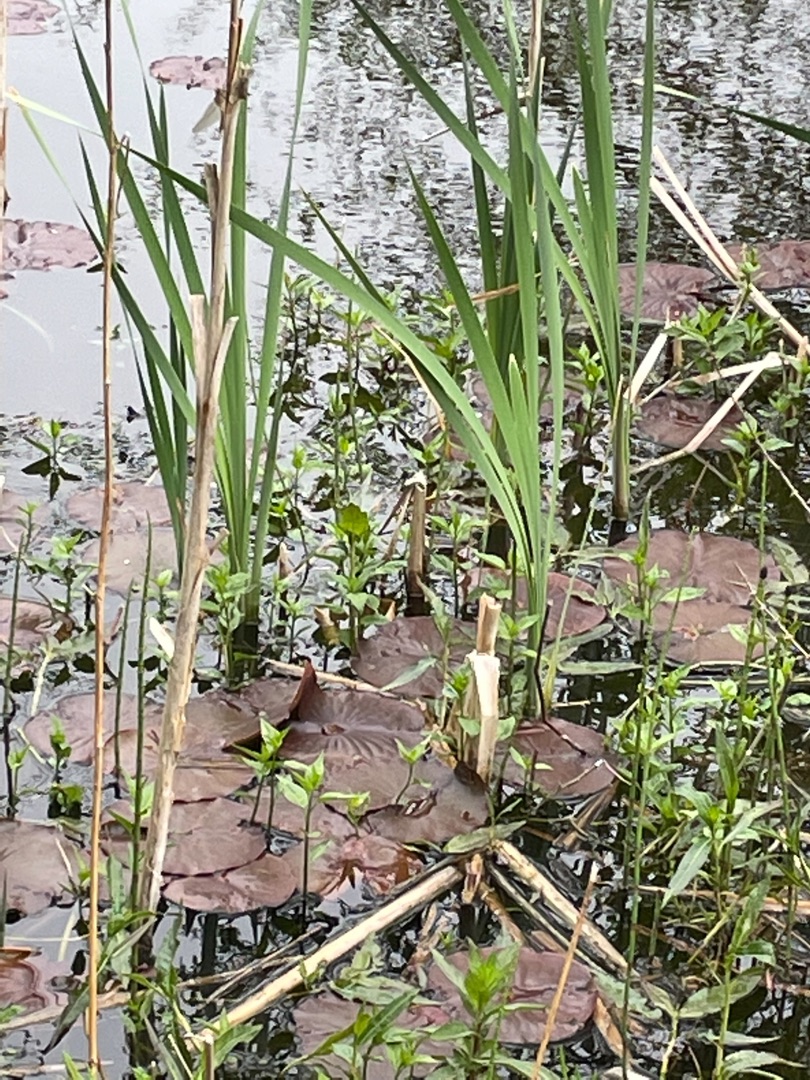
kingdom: Plantae
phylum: Tracheophyta
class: Magnoliopsida
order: Nymphaeales
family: Nymphaeaceae
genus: Nymphaea
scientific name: Nymphaea alba
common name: Hvid åkande
